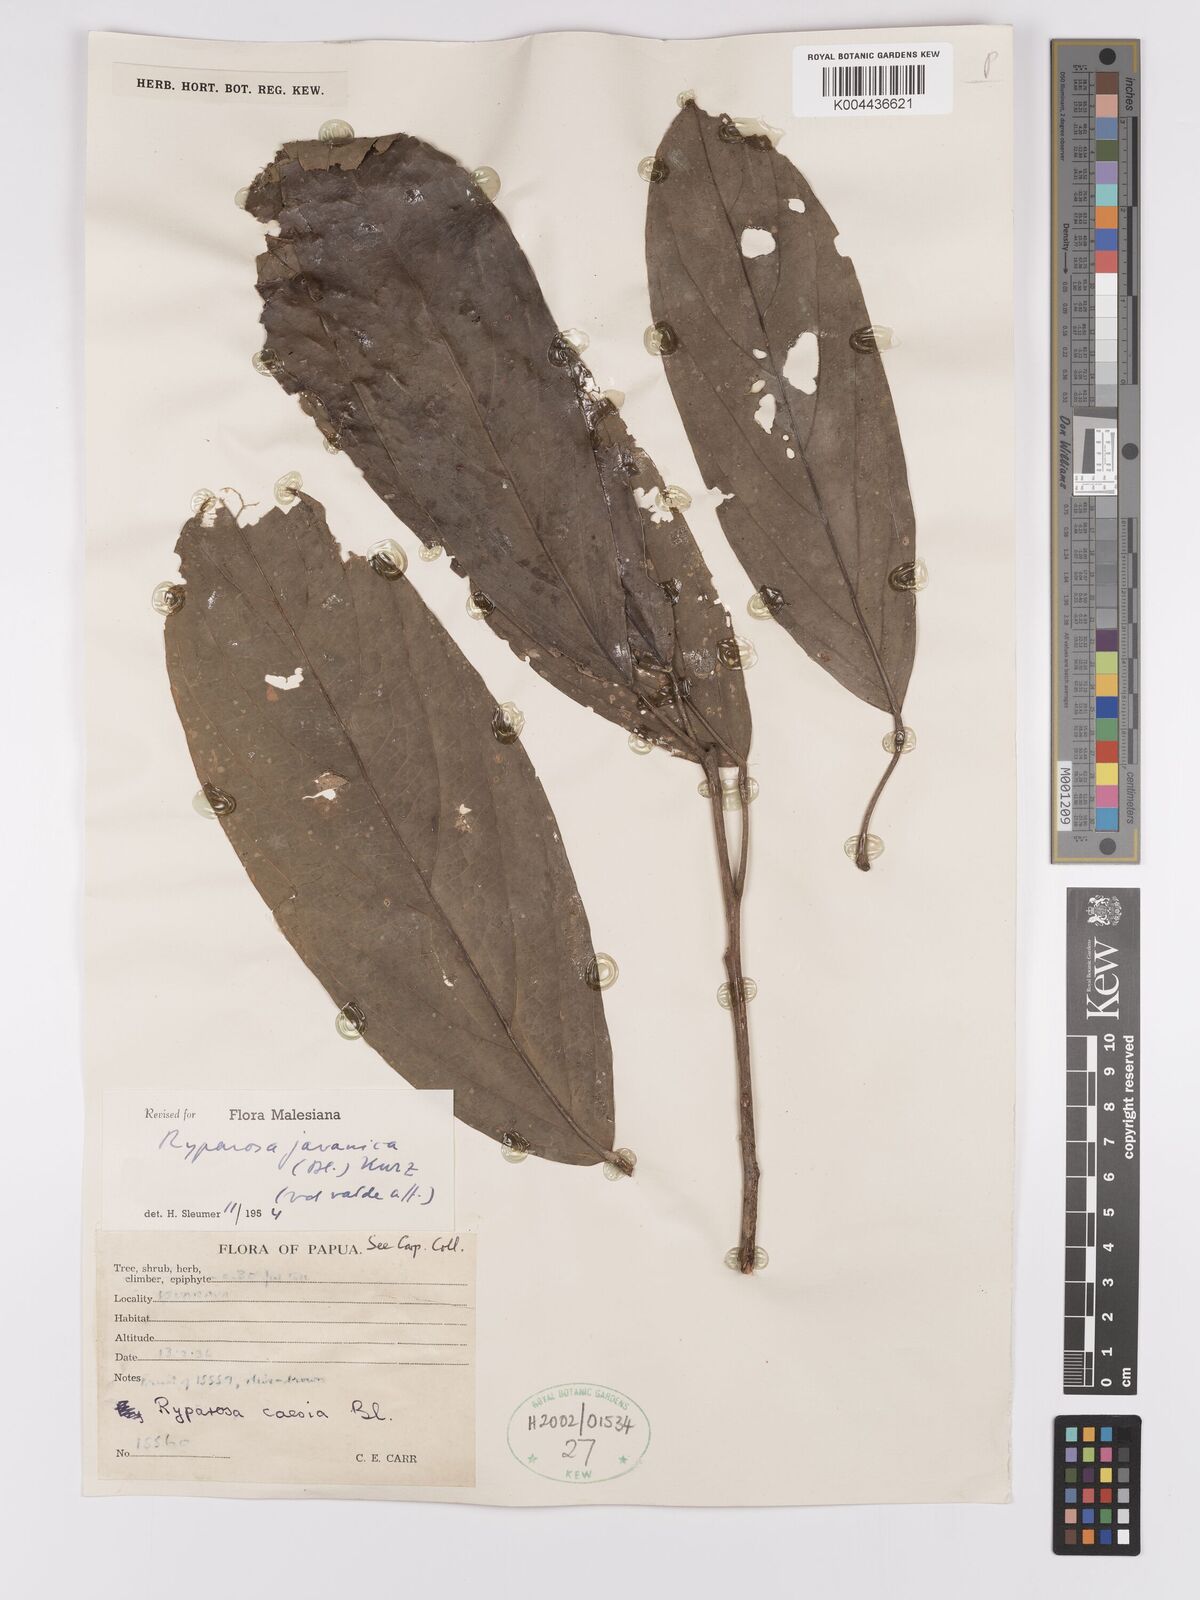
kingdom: Plantae
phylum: Tracheophyta
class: Magnoliopsida
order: Malpighiales
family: Achariaceae
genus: Ryparosa
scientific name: Ryparosa javanica
